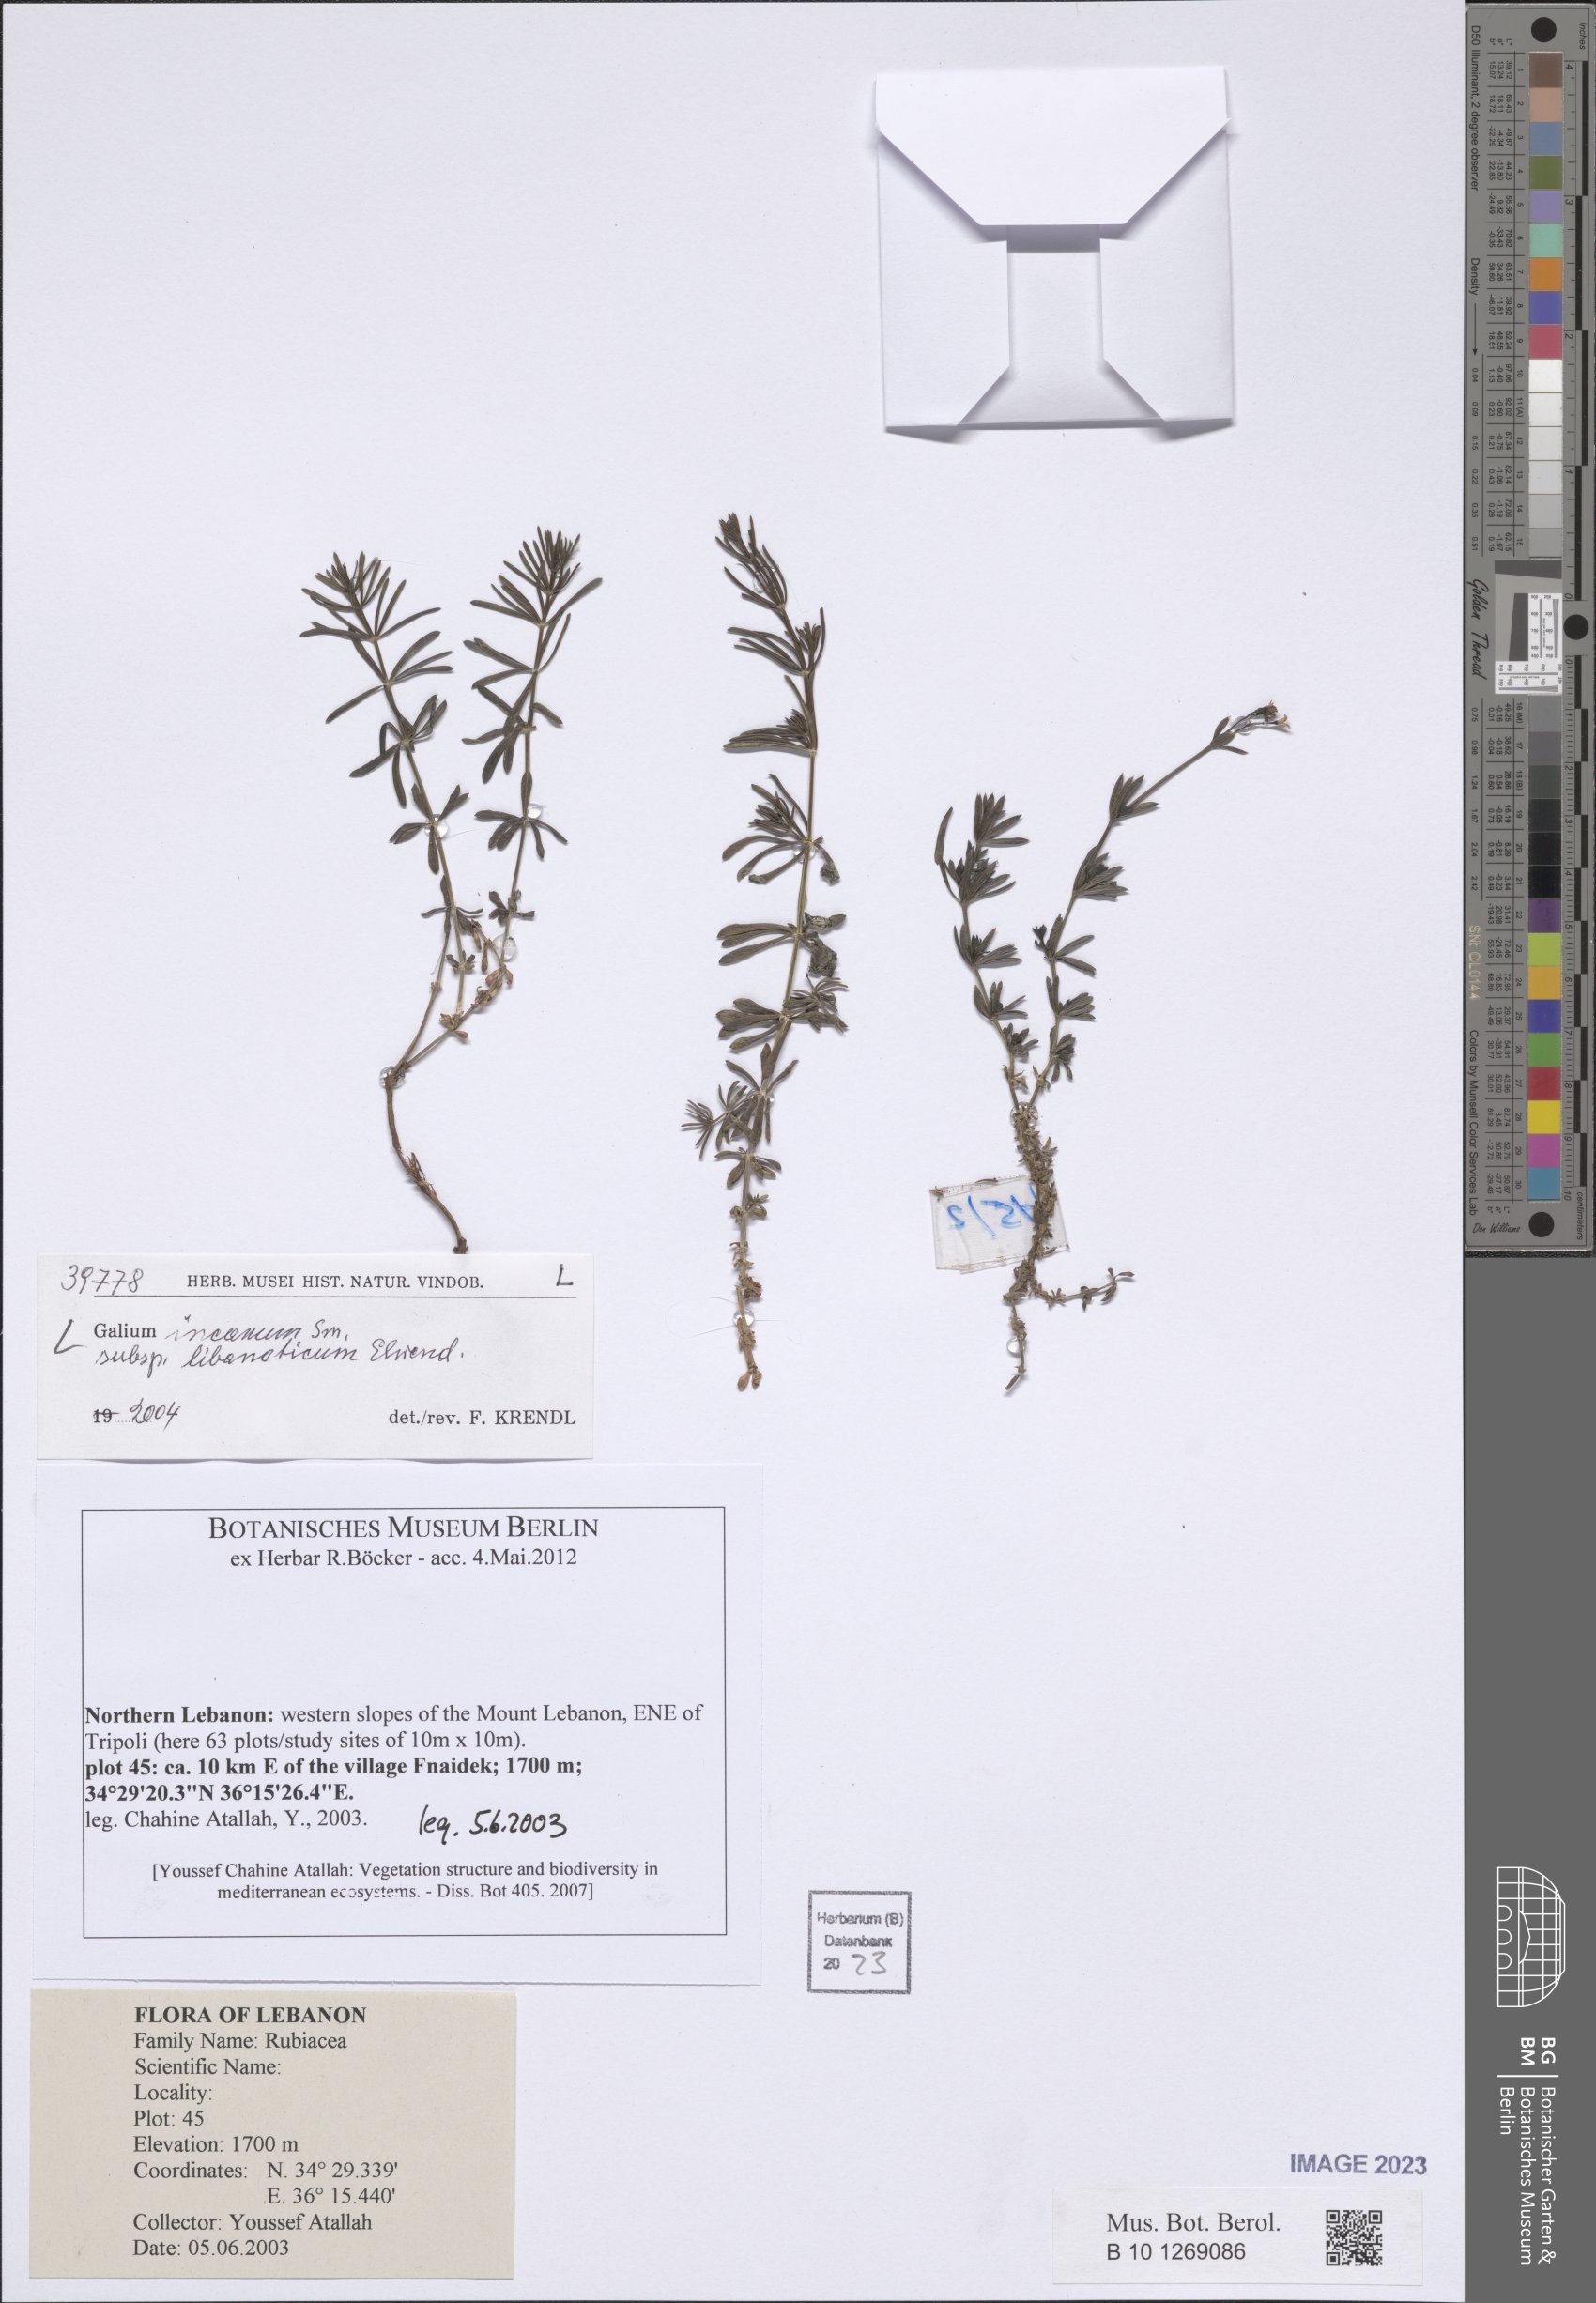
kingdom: Plantae
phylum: Tracheophyta
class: Magnoliopsida
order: Gentianales
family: Rubiaceae
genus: Galium
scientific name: Galium incanum
